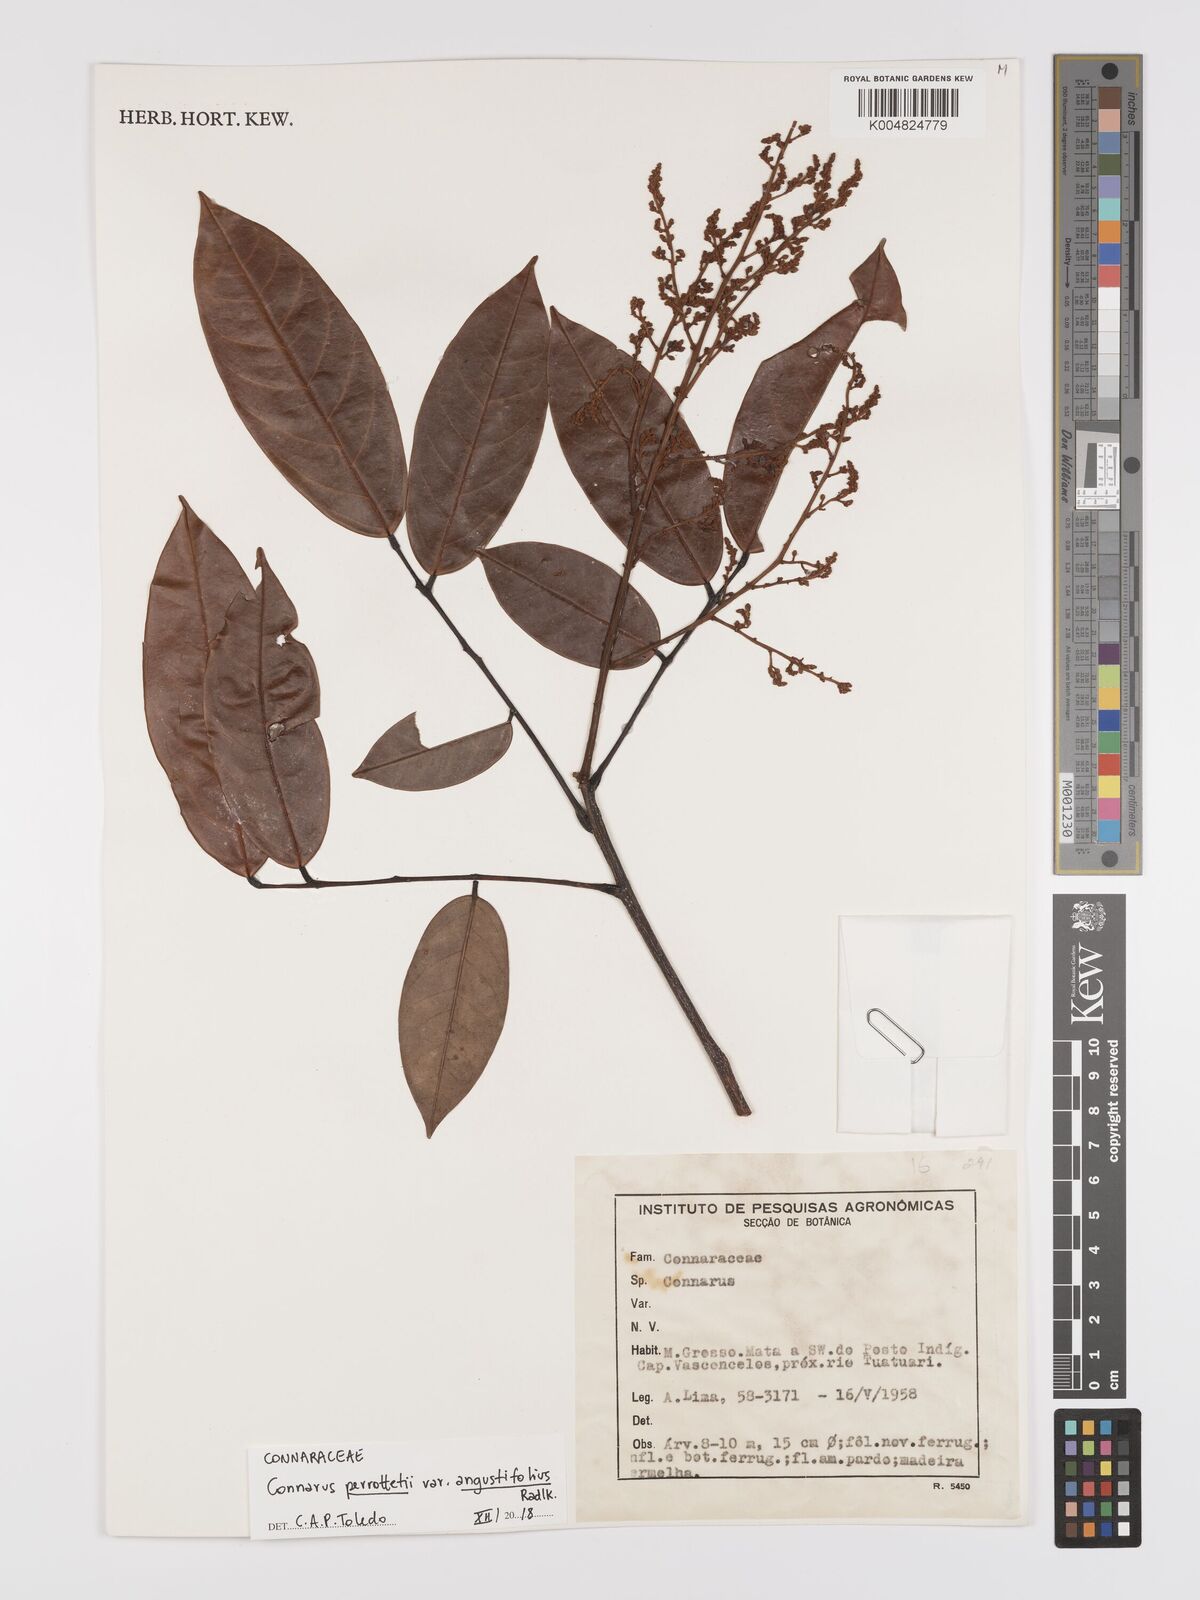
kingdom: Plantae
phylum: Tracheophyta
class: Magnoliopsida
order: Oxalidales
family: Connaraceae
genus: Connarus
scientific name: Connarus perrottetii
